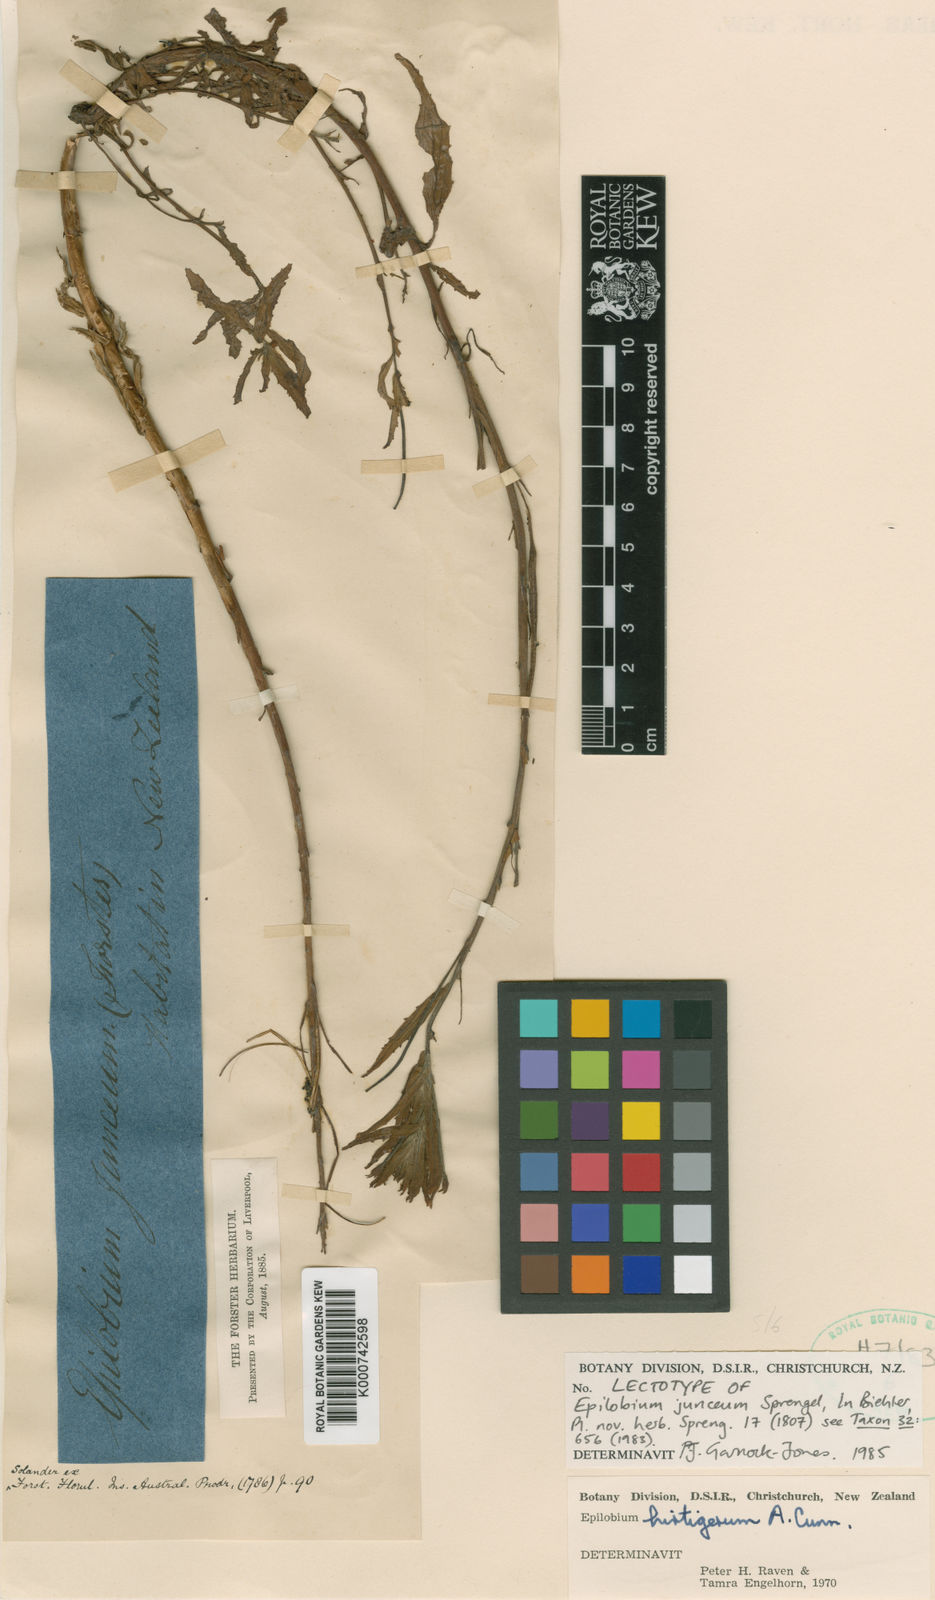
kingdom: Plantae
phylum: Tracheophyta
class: Magnoliopsida
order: Myrtales
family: Onagraceae
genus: Epilobium
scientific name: Epilobium billardierianum
